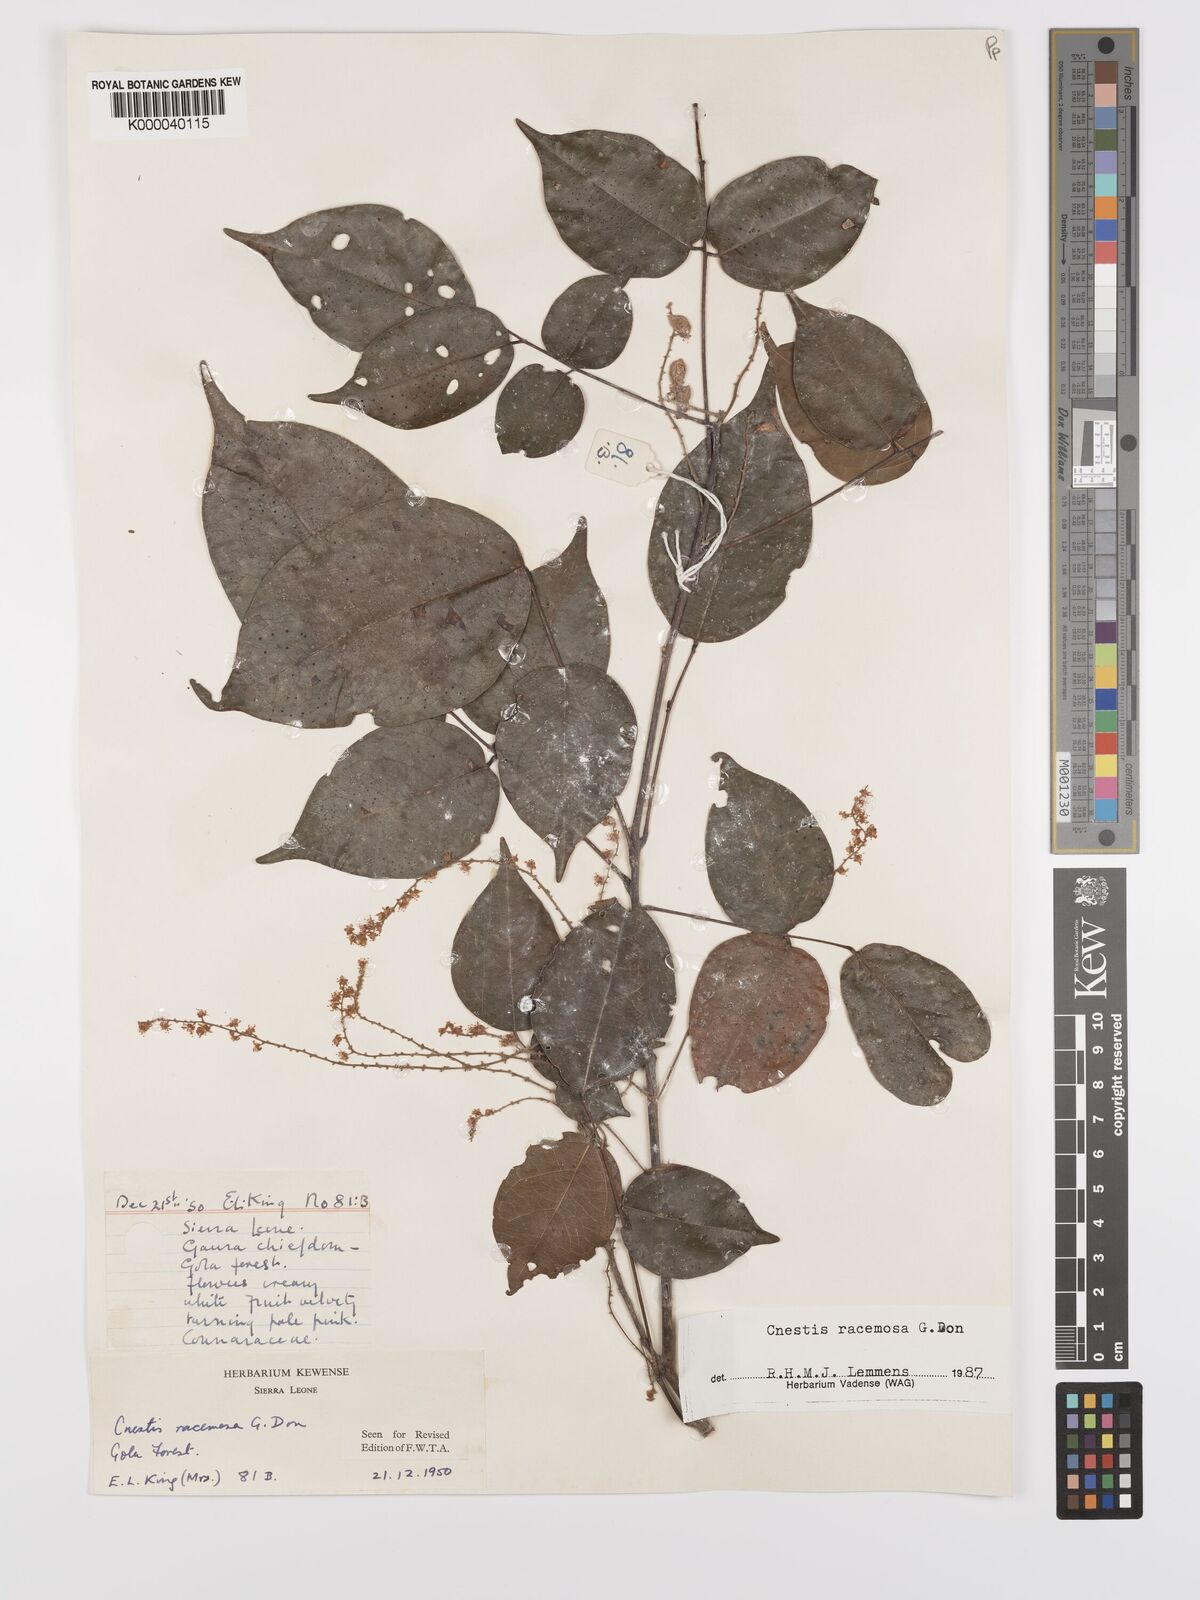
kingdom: Plantae
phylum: Tracheophyta
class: Magnoliopsida
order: Oxalidales
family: Connaraceae
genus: Cnestis
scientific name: Cnestis racemosa
